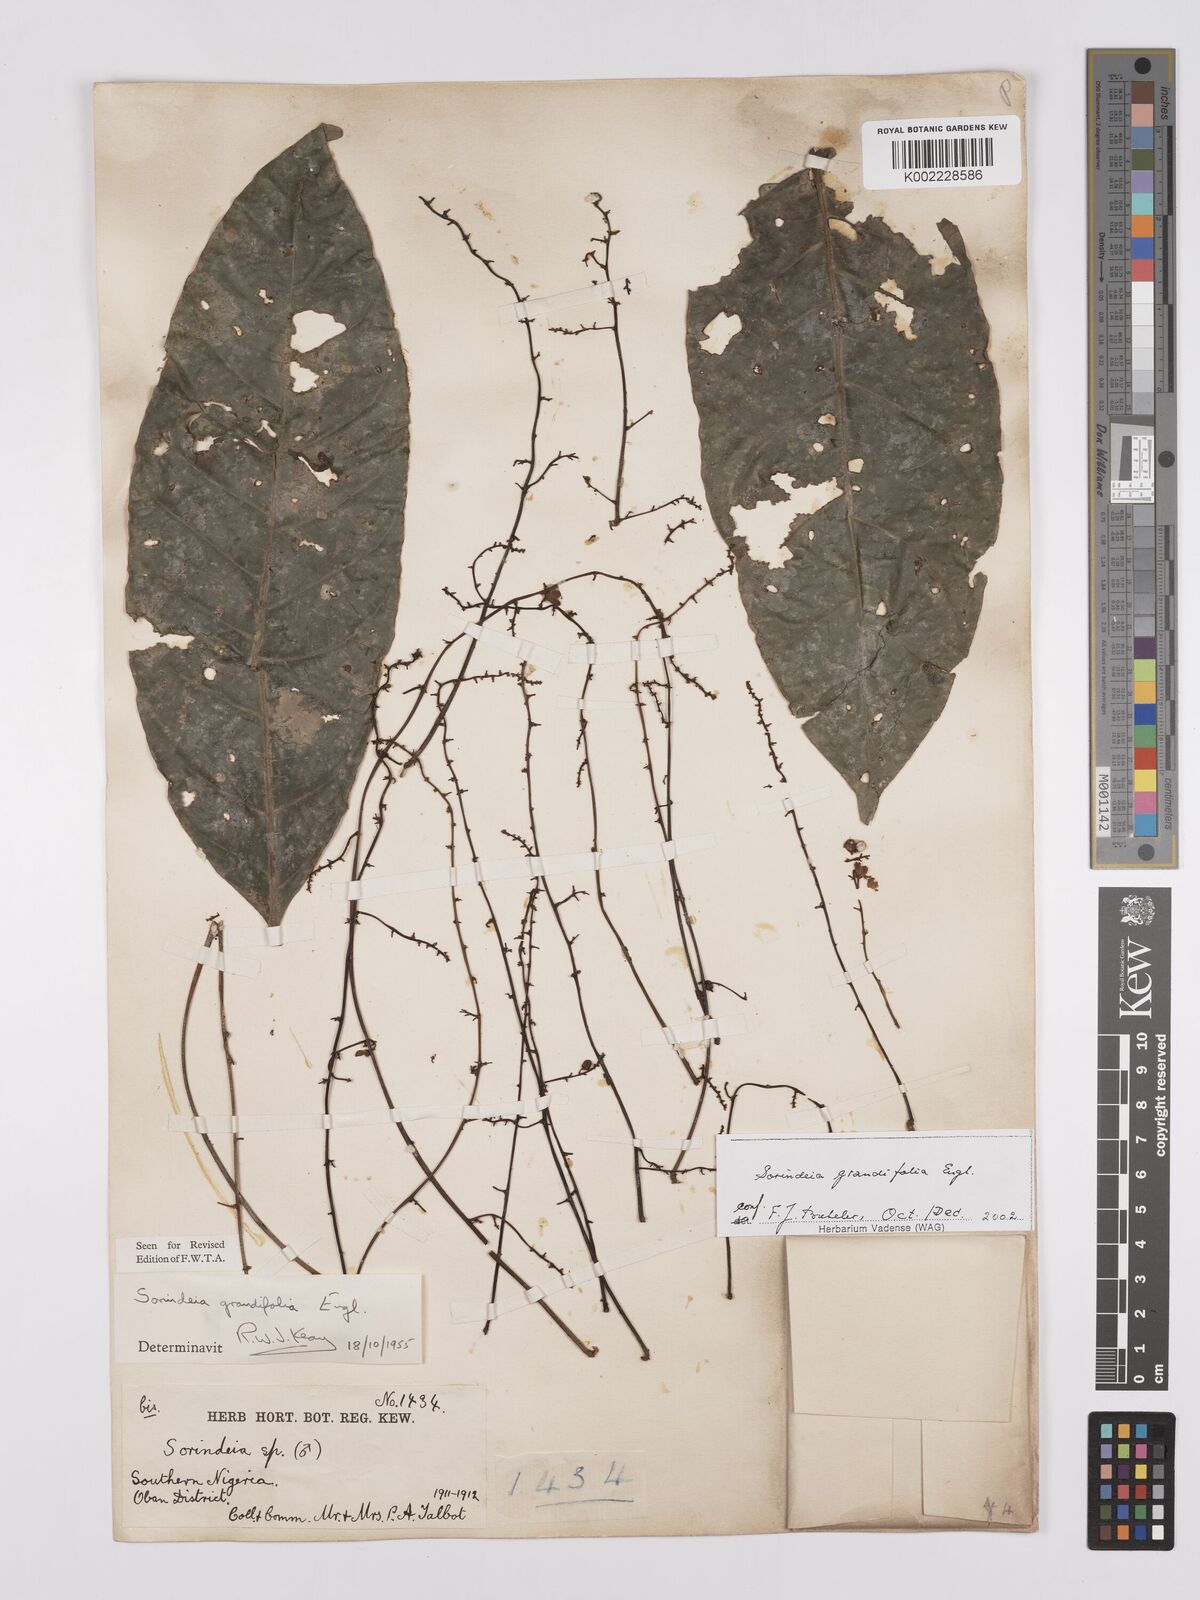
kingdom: Plantae
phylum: Tracheophyta
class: Magnoliopsida
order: Sapindales
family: Anacardiaceae
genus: Sorindeia
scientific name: Sorindeia grandifolia
